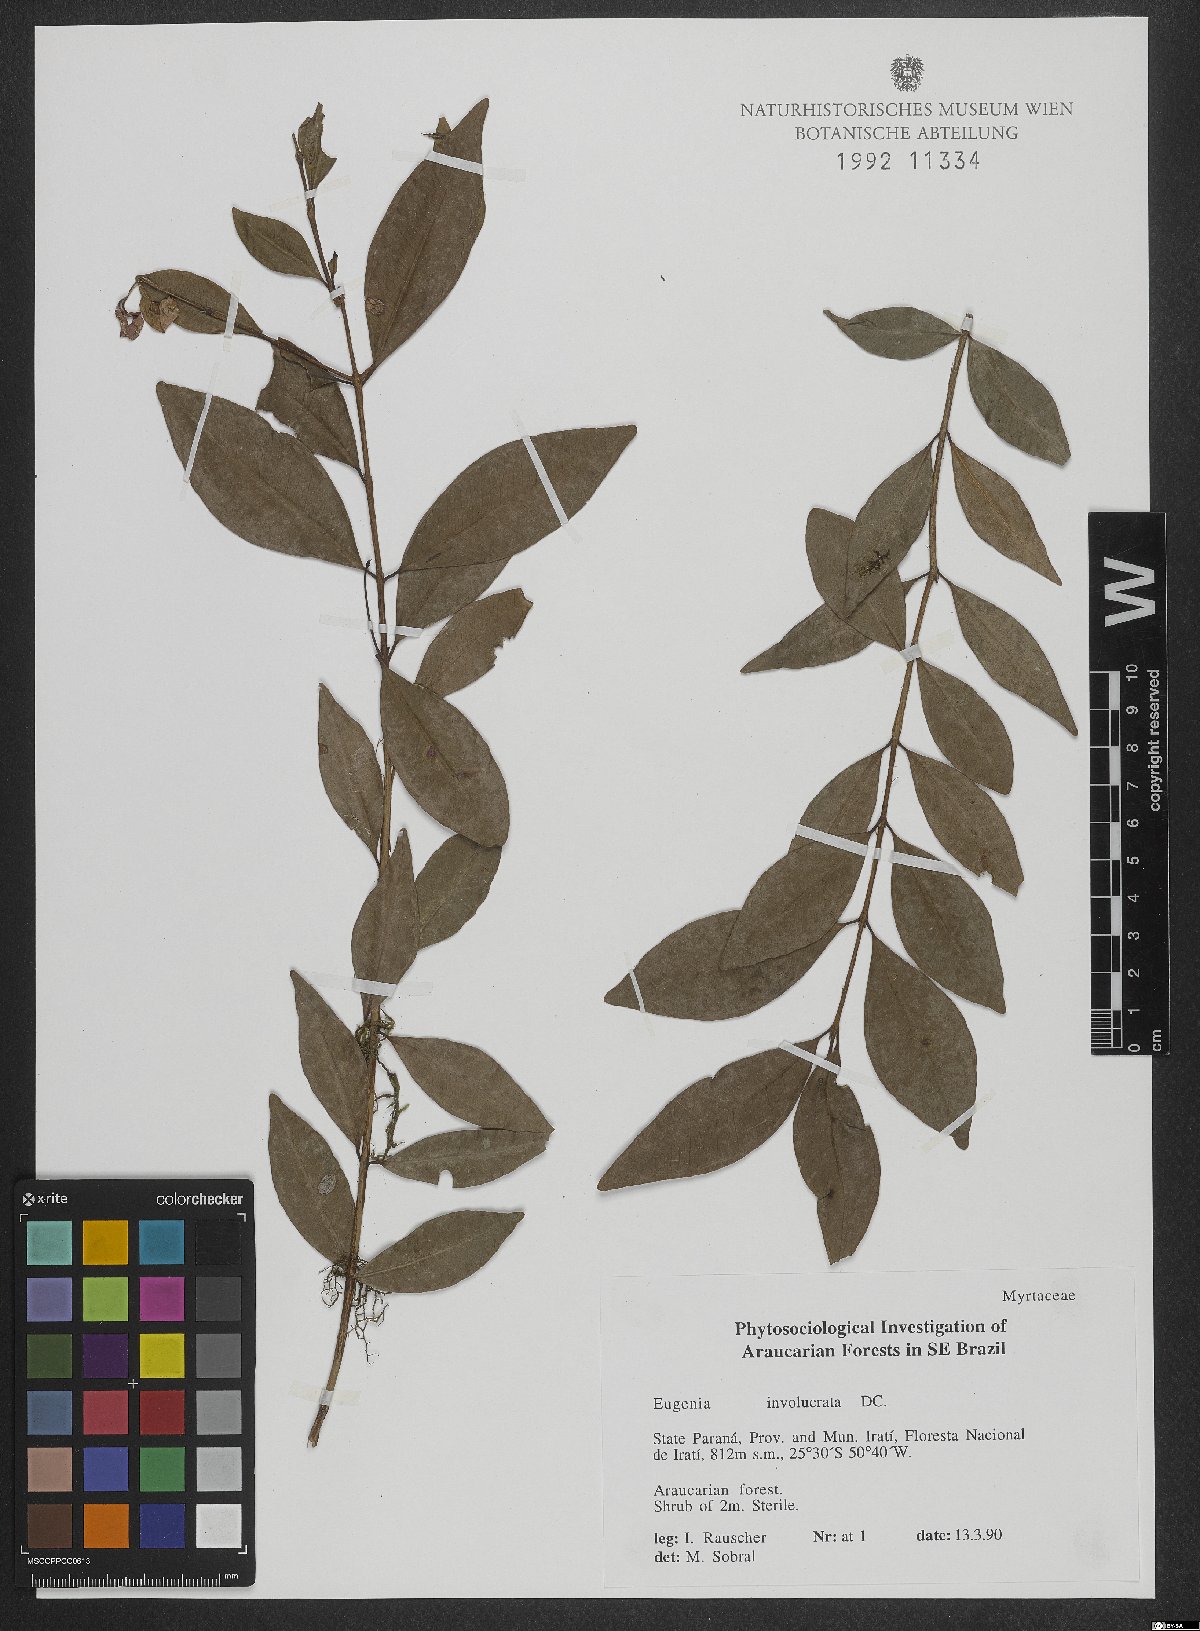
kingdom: Plantae
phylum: Tracheophyta
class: Magnoliopsida
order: Myrtales
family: Myrtaceae
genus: Eugenia
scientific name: Eugenia involucrata
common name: Cherry-of-the-rio grande
